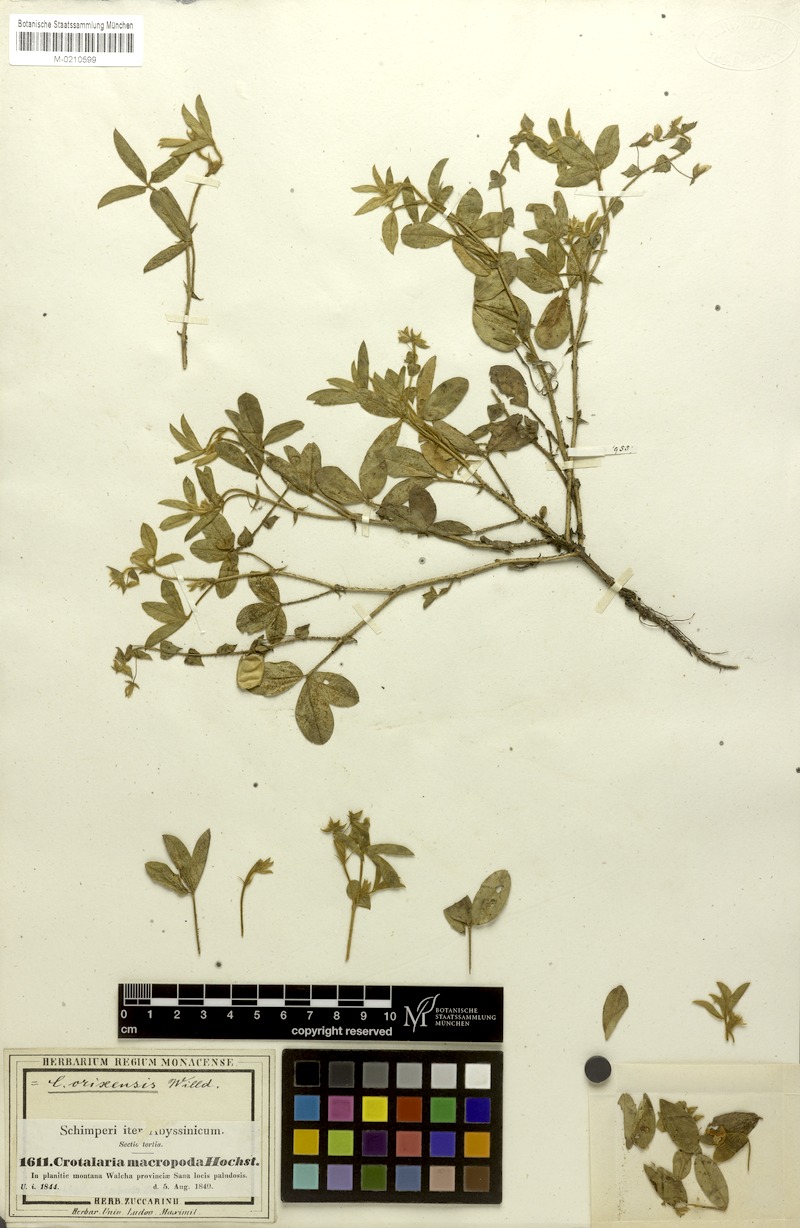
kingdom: Plantae
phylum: Tracheophyta
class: Magnoliopsida
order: Fabales
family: Fabaceae
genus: Crotalaria
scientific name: Crotalaria orixensis
